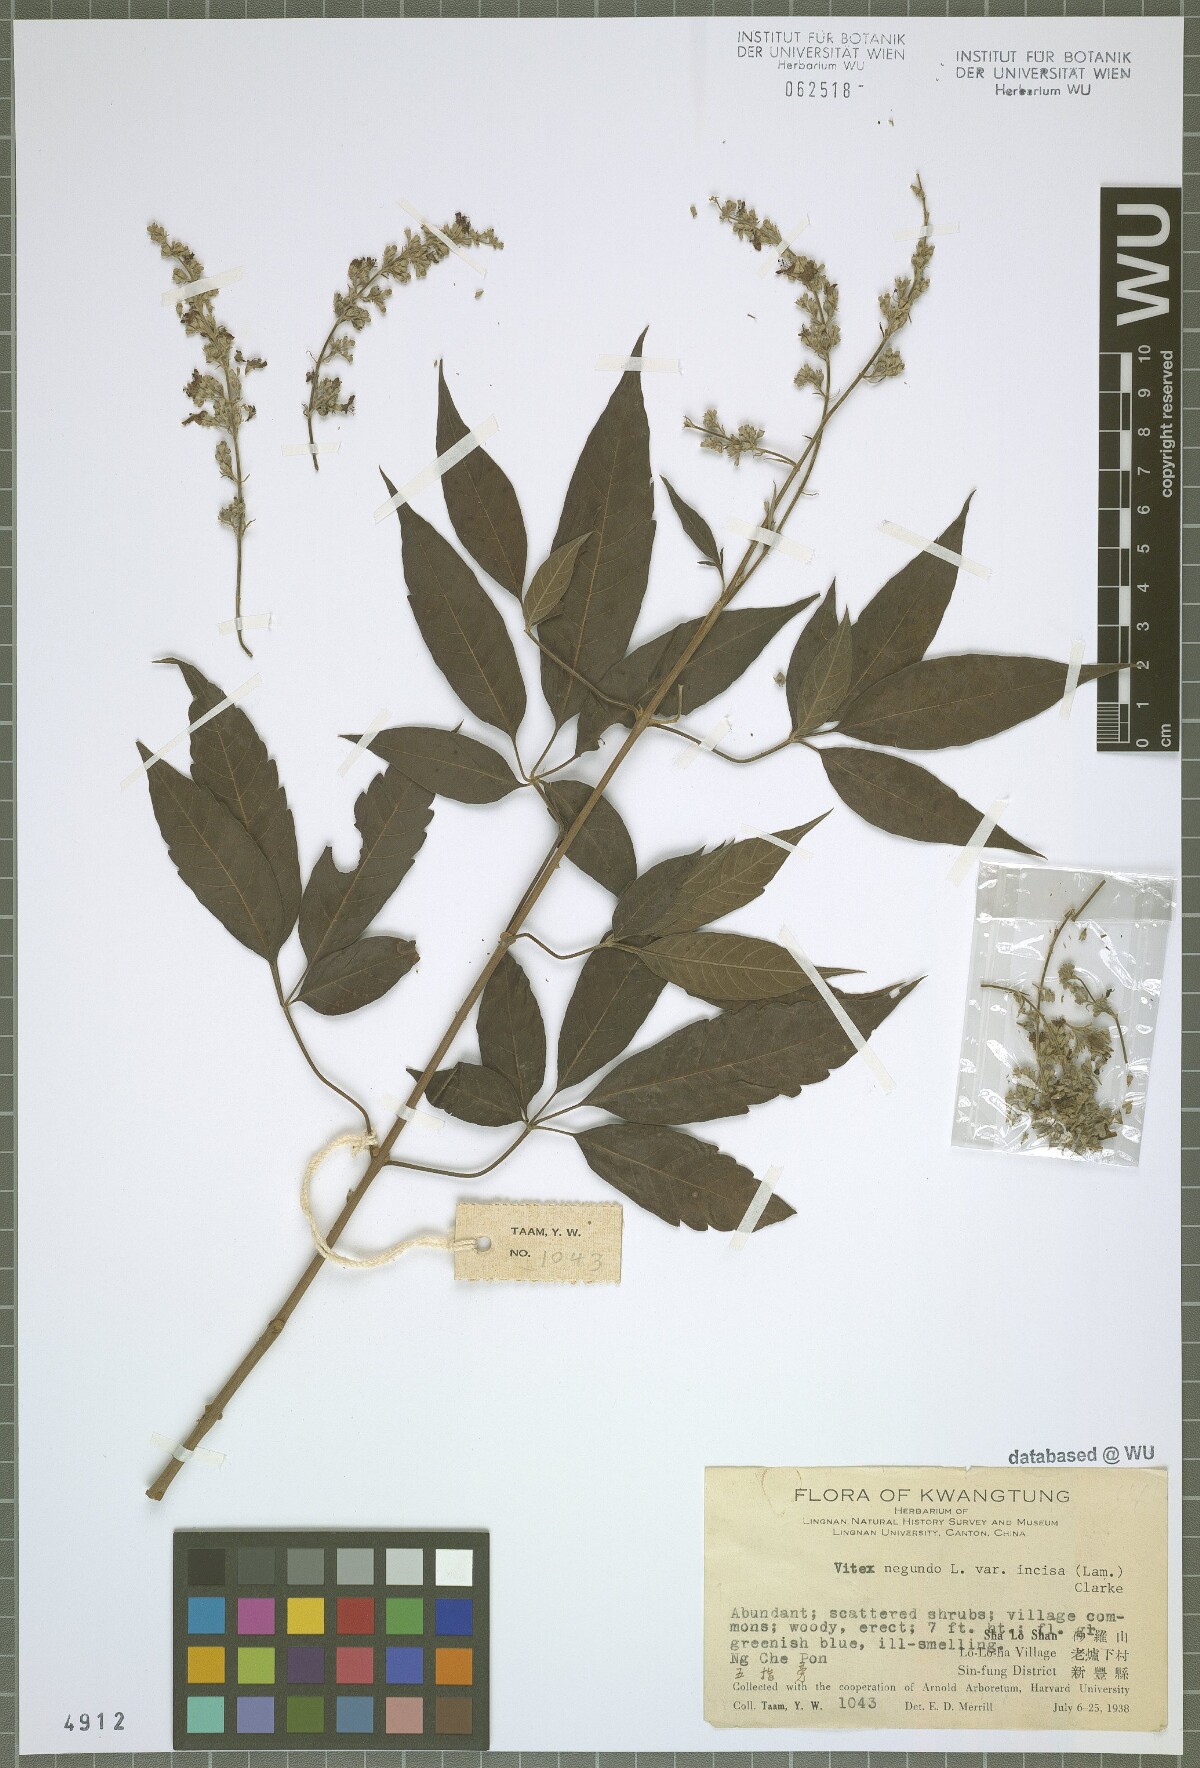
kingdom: Plantae
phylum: Tracheophyta
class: Magnoliopsida
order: Lamiales
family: Lamiaceae
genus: Vitex
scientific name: Vitex negundo
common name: Chinese chastetree
